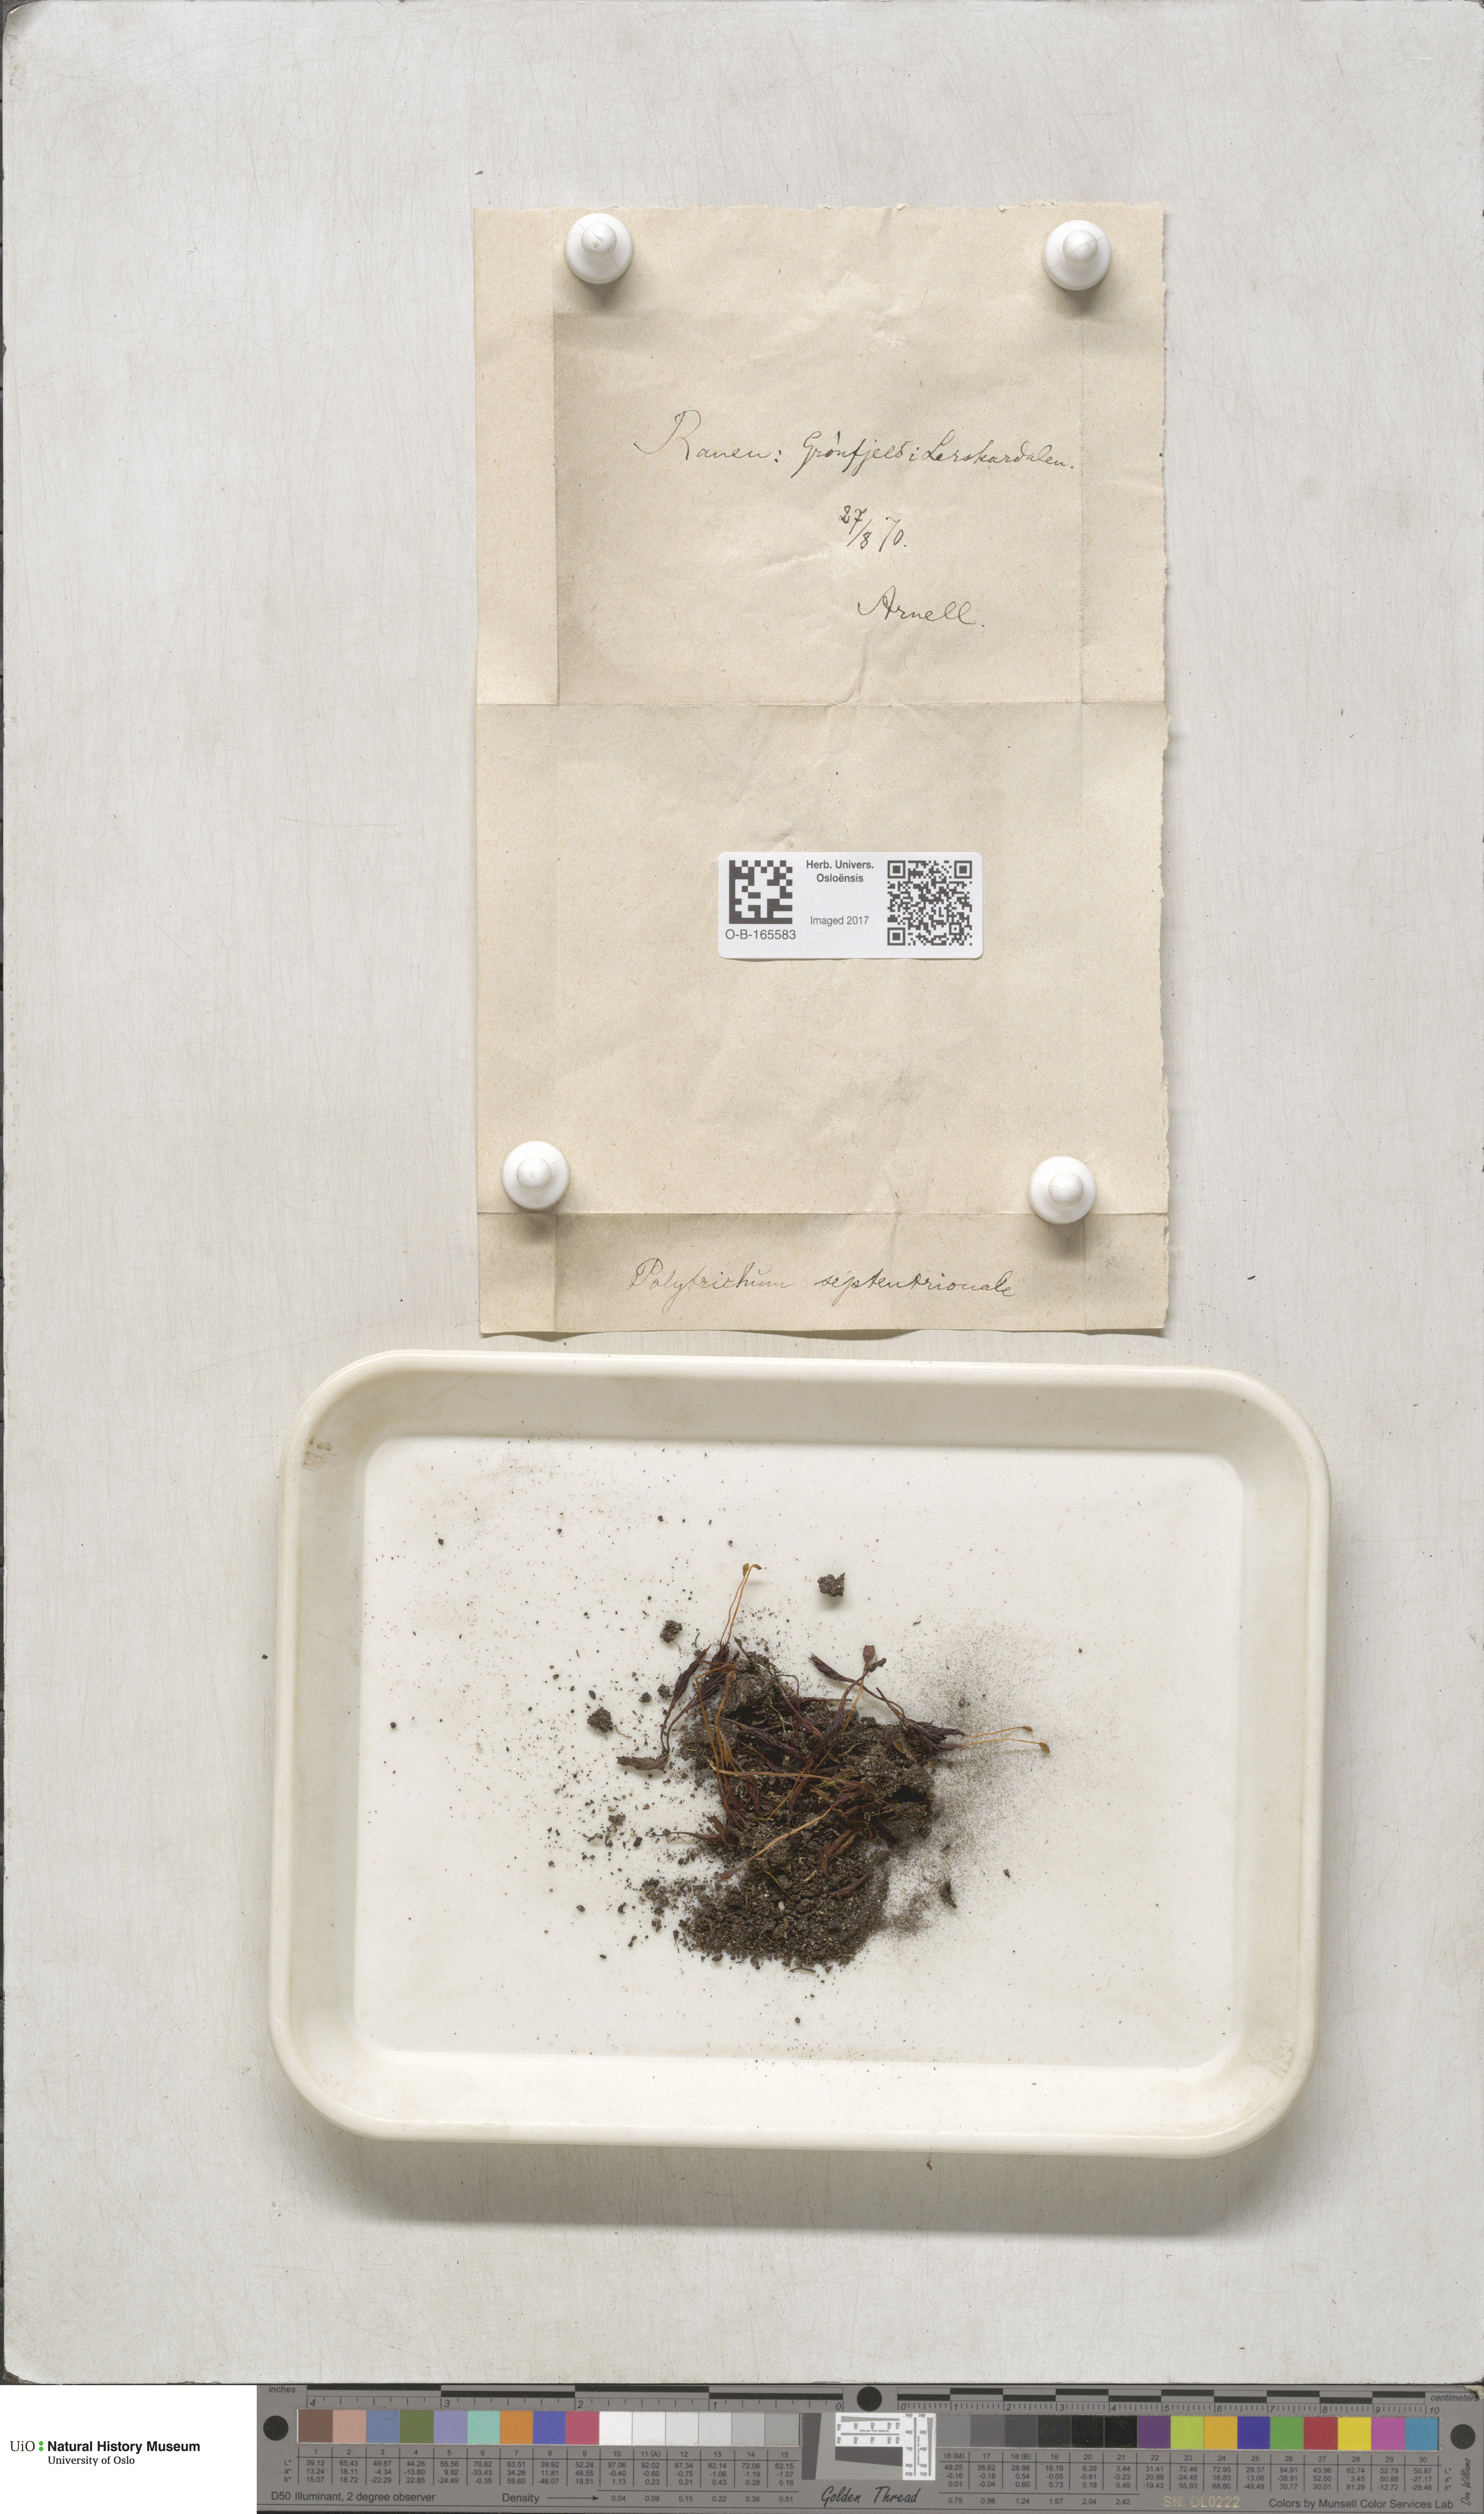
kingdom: Plantae
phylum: Bryophyta
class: Polytrichopsida
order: Polytrichales
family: Polytrichaceae
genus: Polytrichastrum
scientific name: Polytrichastrum sexangulare
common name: Northern haircap
